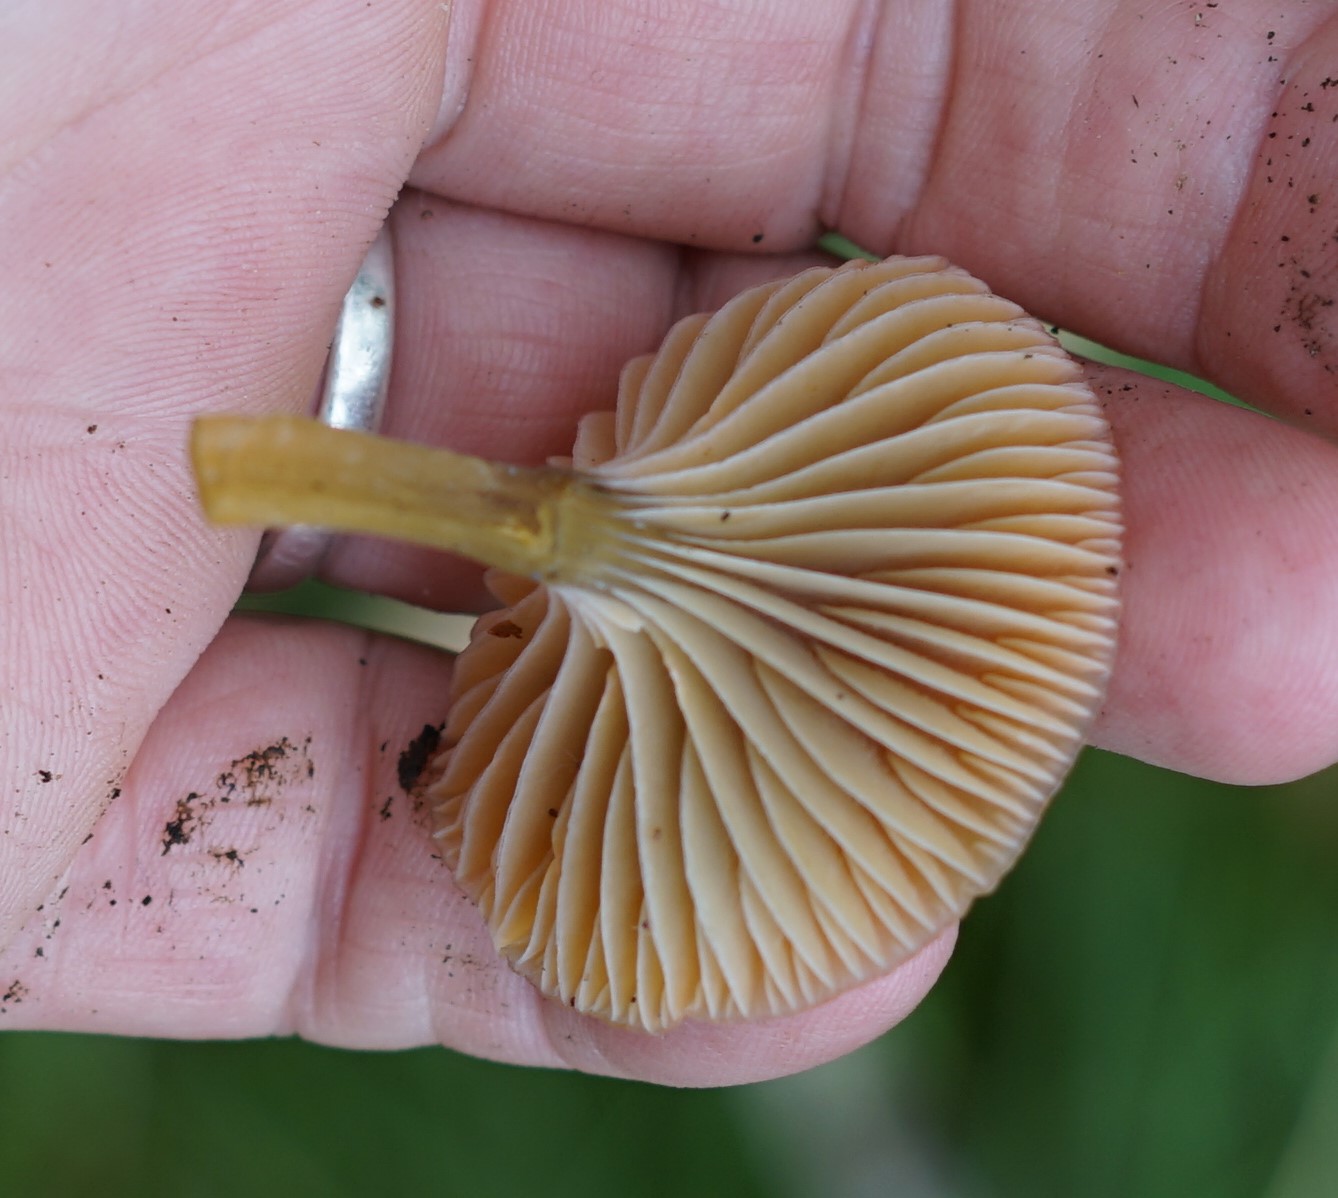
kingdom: Fungi
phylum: Basidiomycota
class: Agaricomycetes
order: Agaricales
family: Hygrophoraceae
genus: Gliophorus
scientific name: Gliophorus laetus
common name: brusk-vokshat
